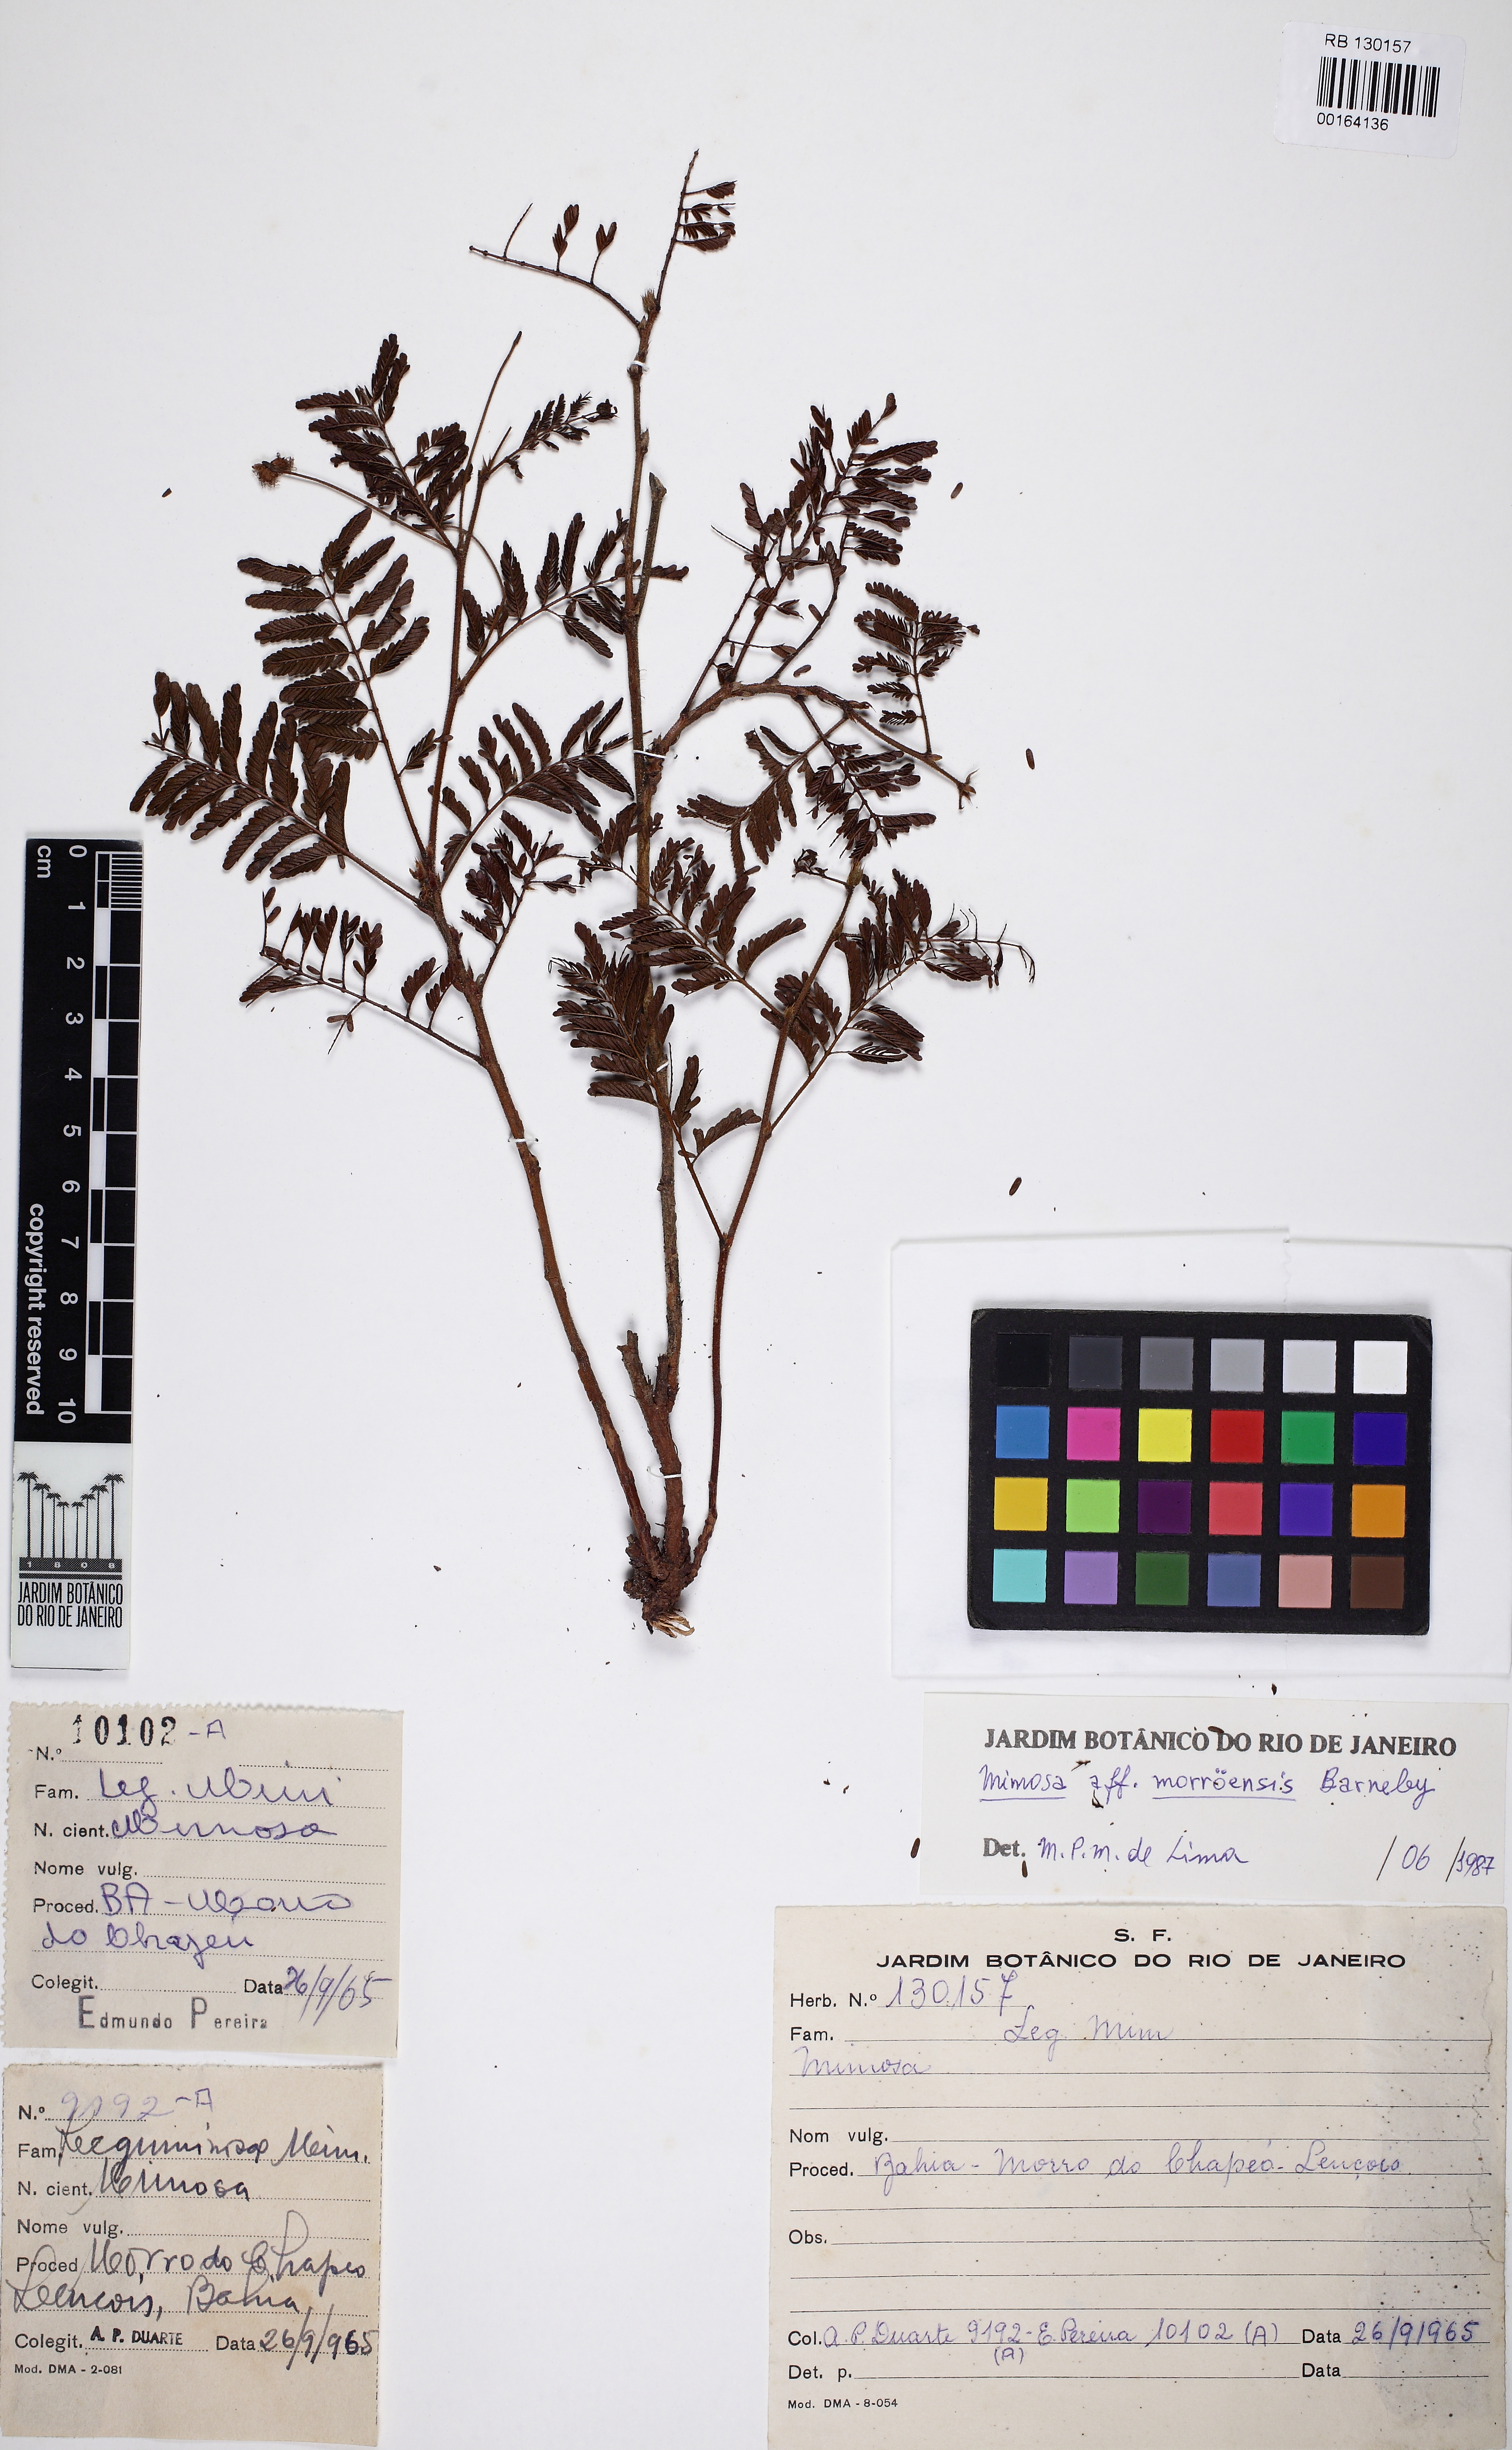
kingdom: Plantae
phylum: Tracheophyta
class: Magnoliopsida
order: Fabales
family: Fabaceae
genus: Mimosa
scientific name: Mimosa morroensis
